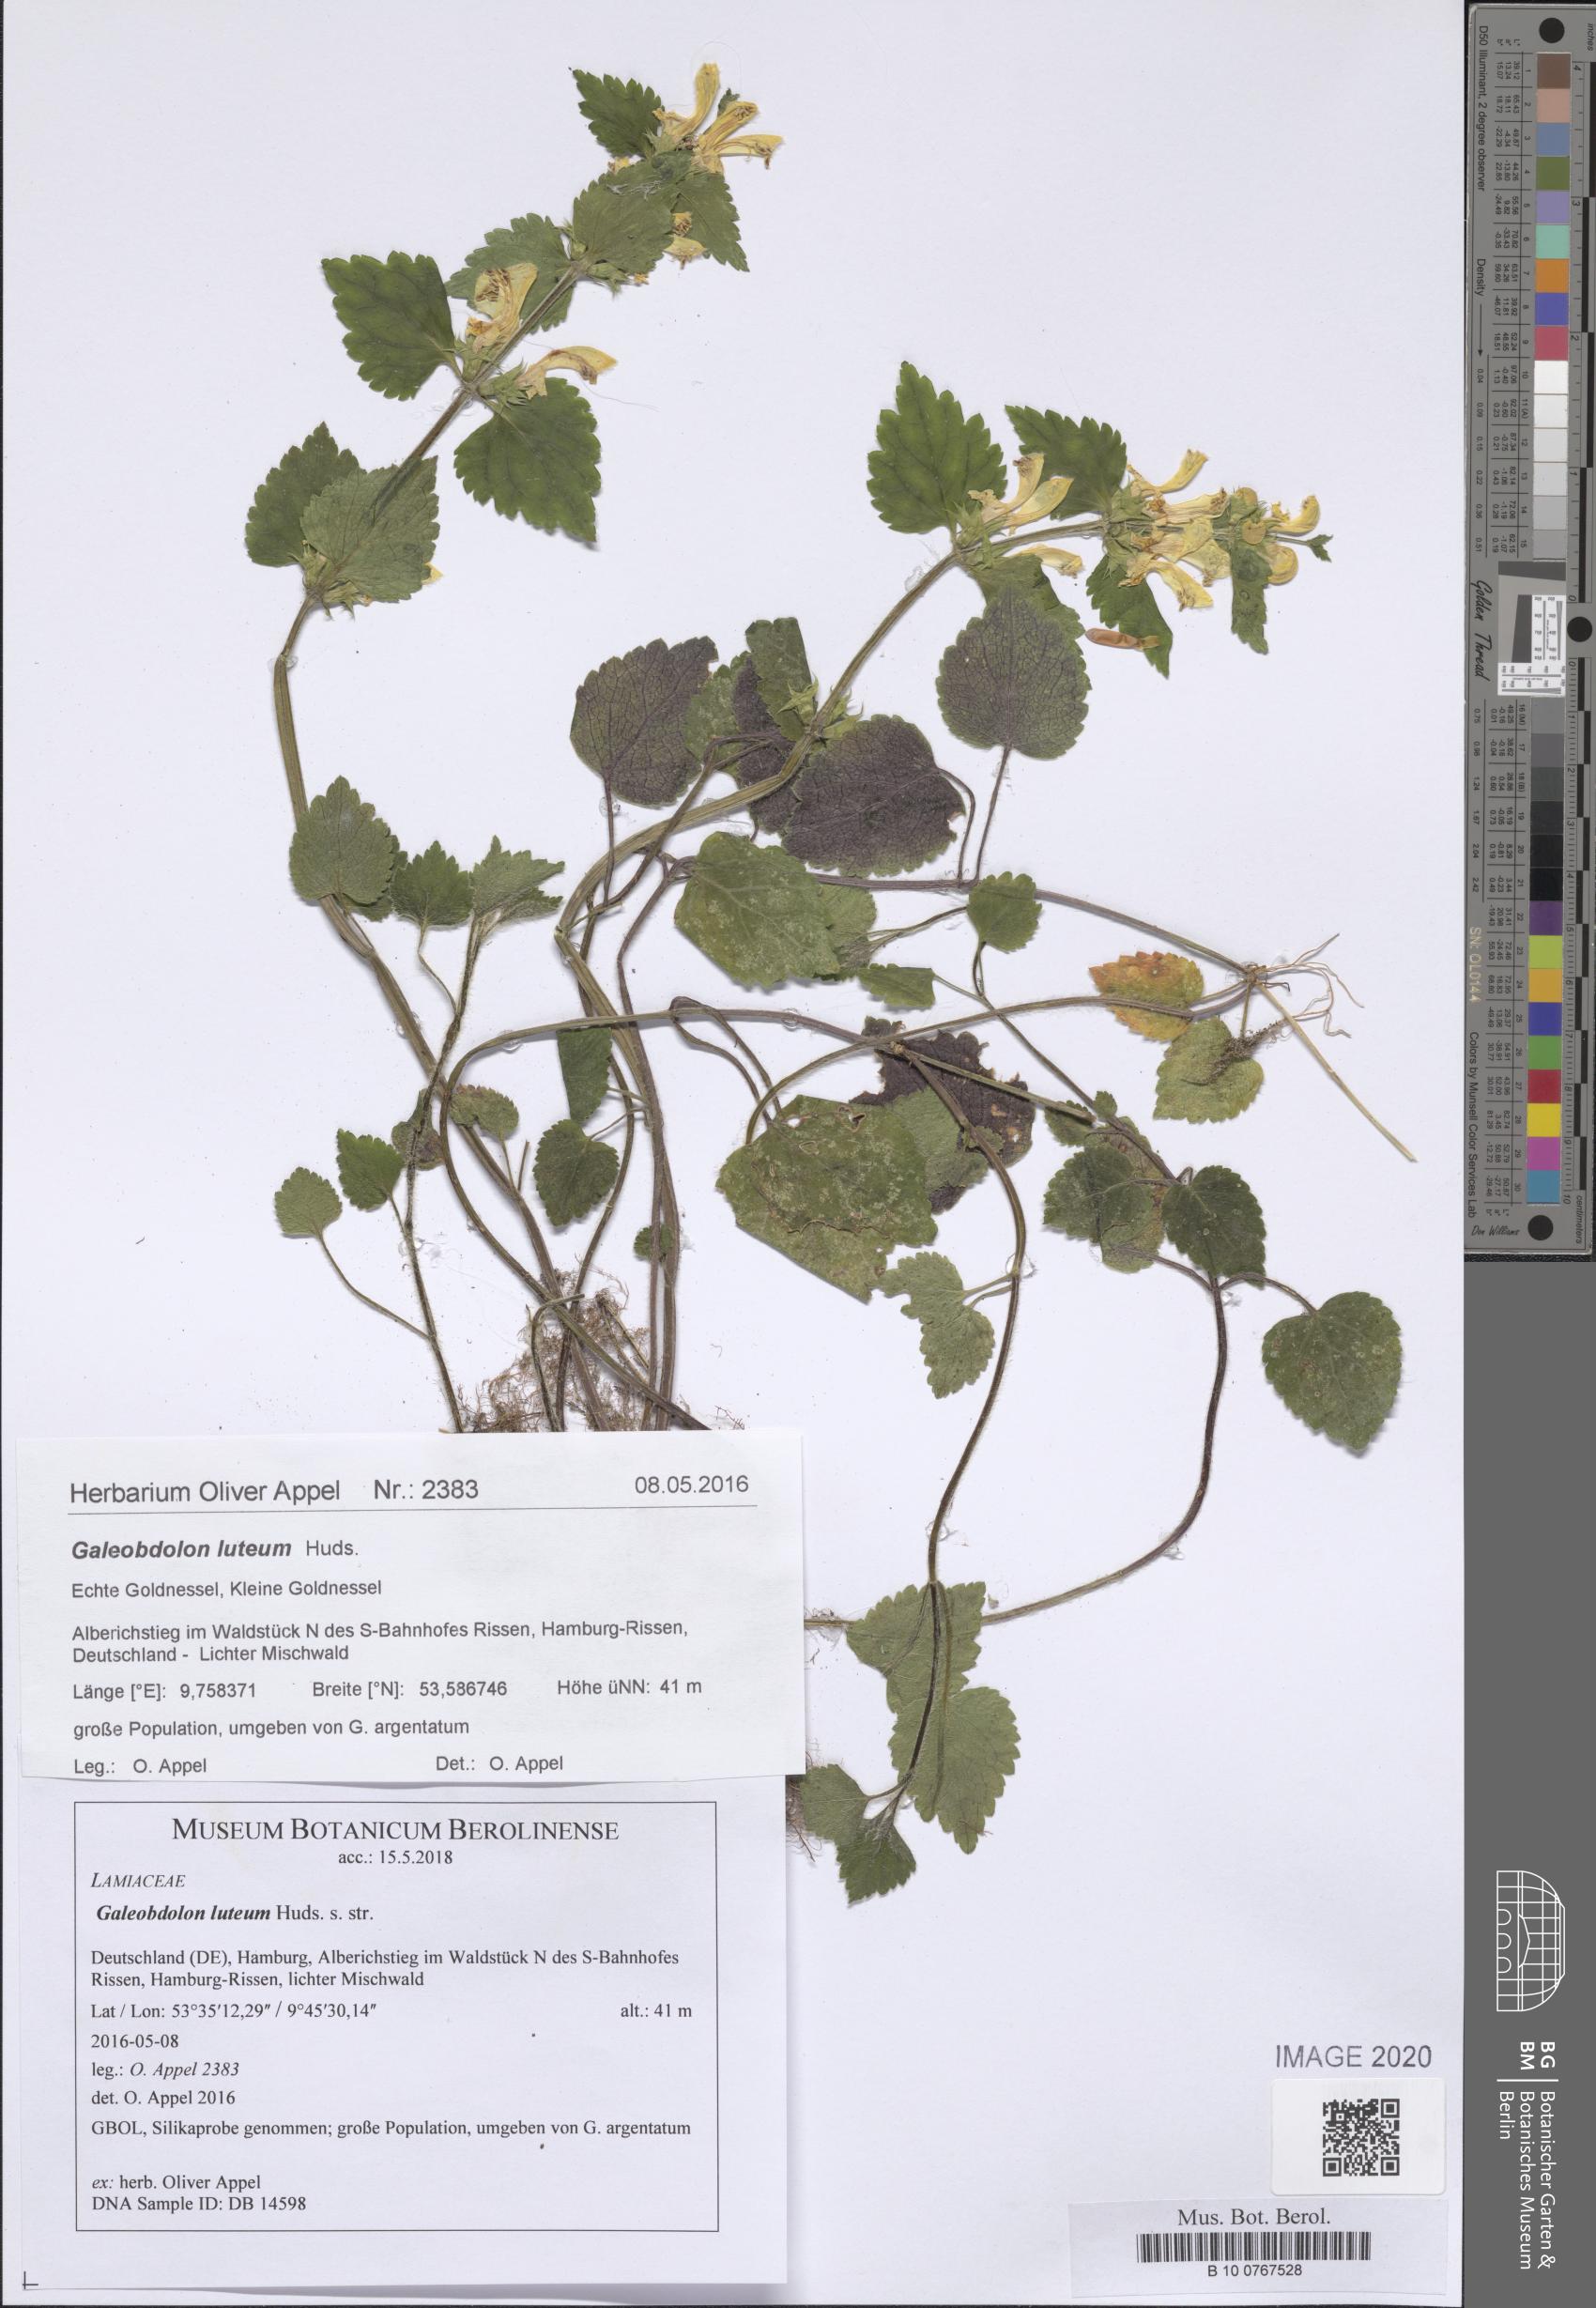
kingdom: Plantae
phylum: Tracheophyta
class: Magnoliopsida
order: Lamiales
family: Lamiaceae
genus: Lamium
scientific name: Lamium galeobdolon
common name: Yellow archangel
